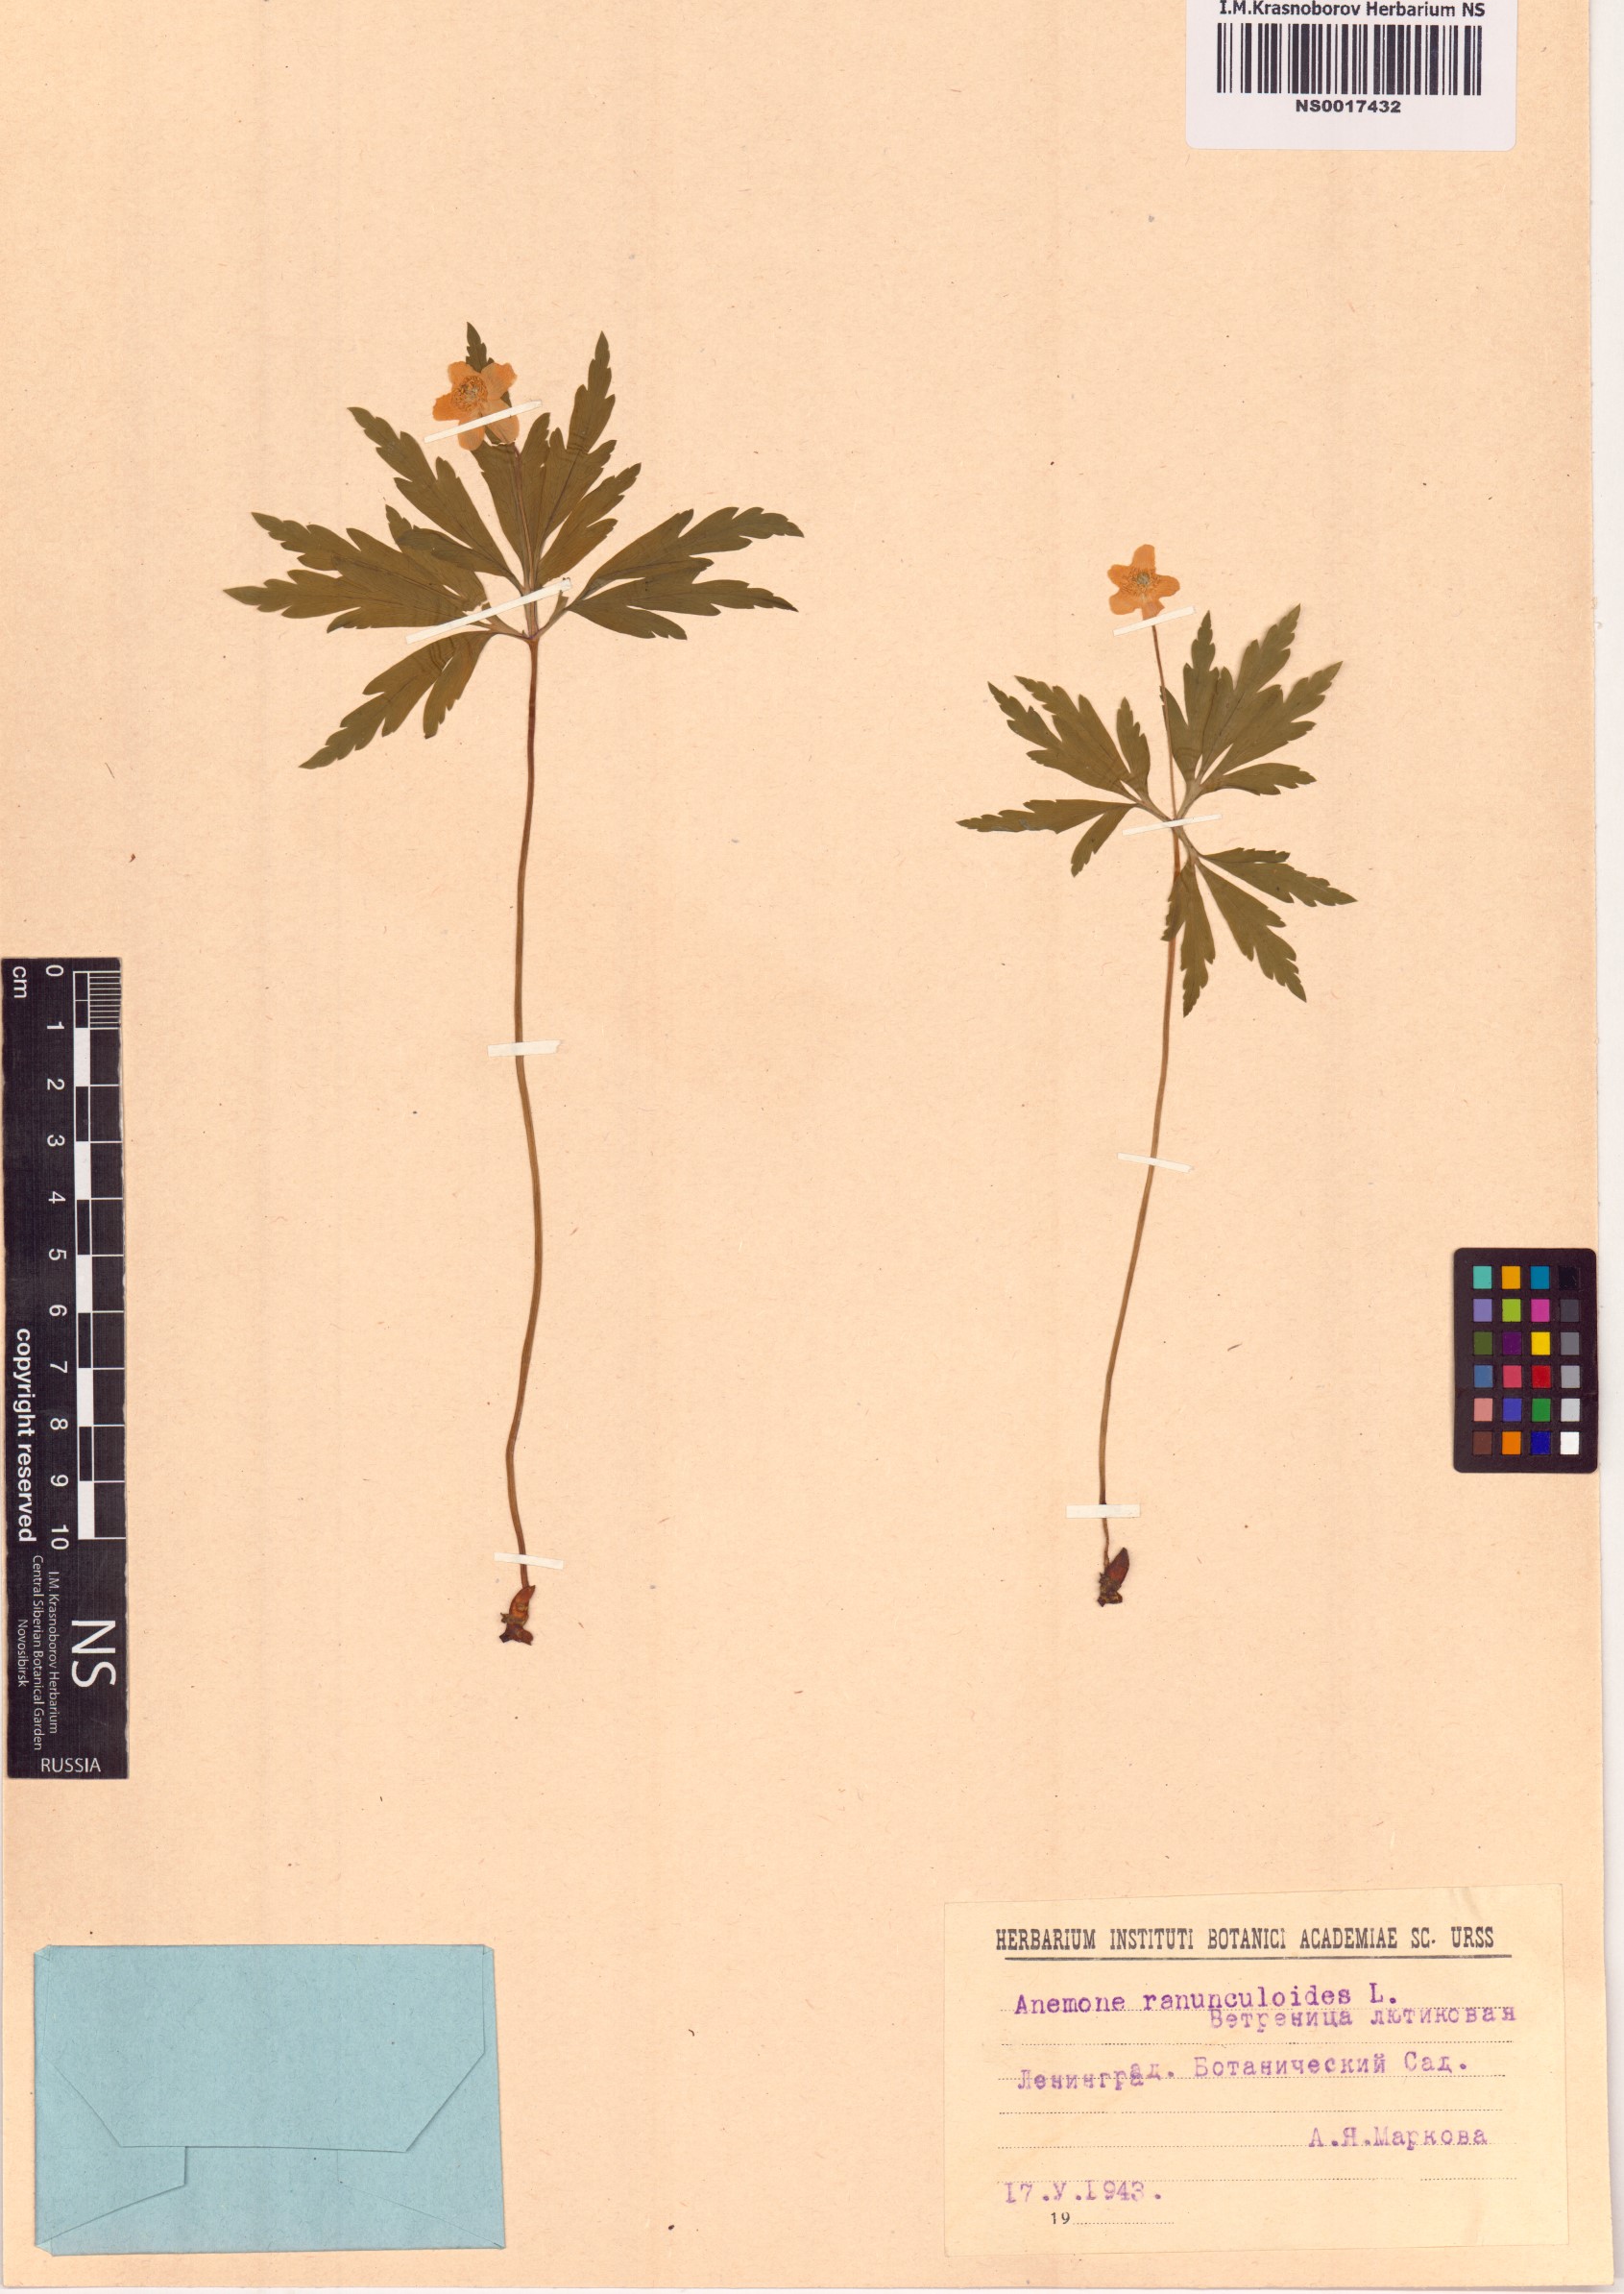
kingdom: Plantae
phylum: Tracheophyta
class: Magnoliopsida
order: Ranunculales
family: Ranunculaceae
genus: Anemone
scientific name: Anemone ranunculoides
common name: Yellow anemone
